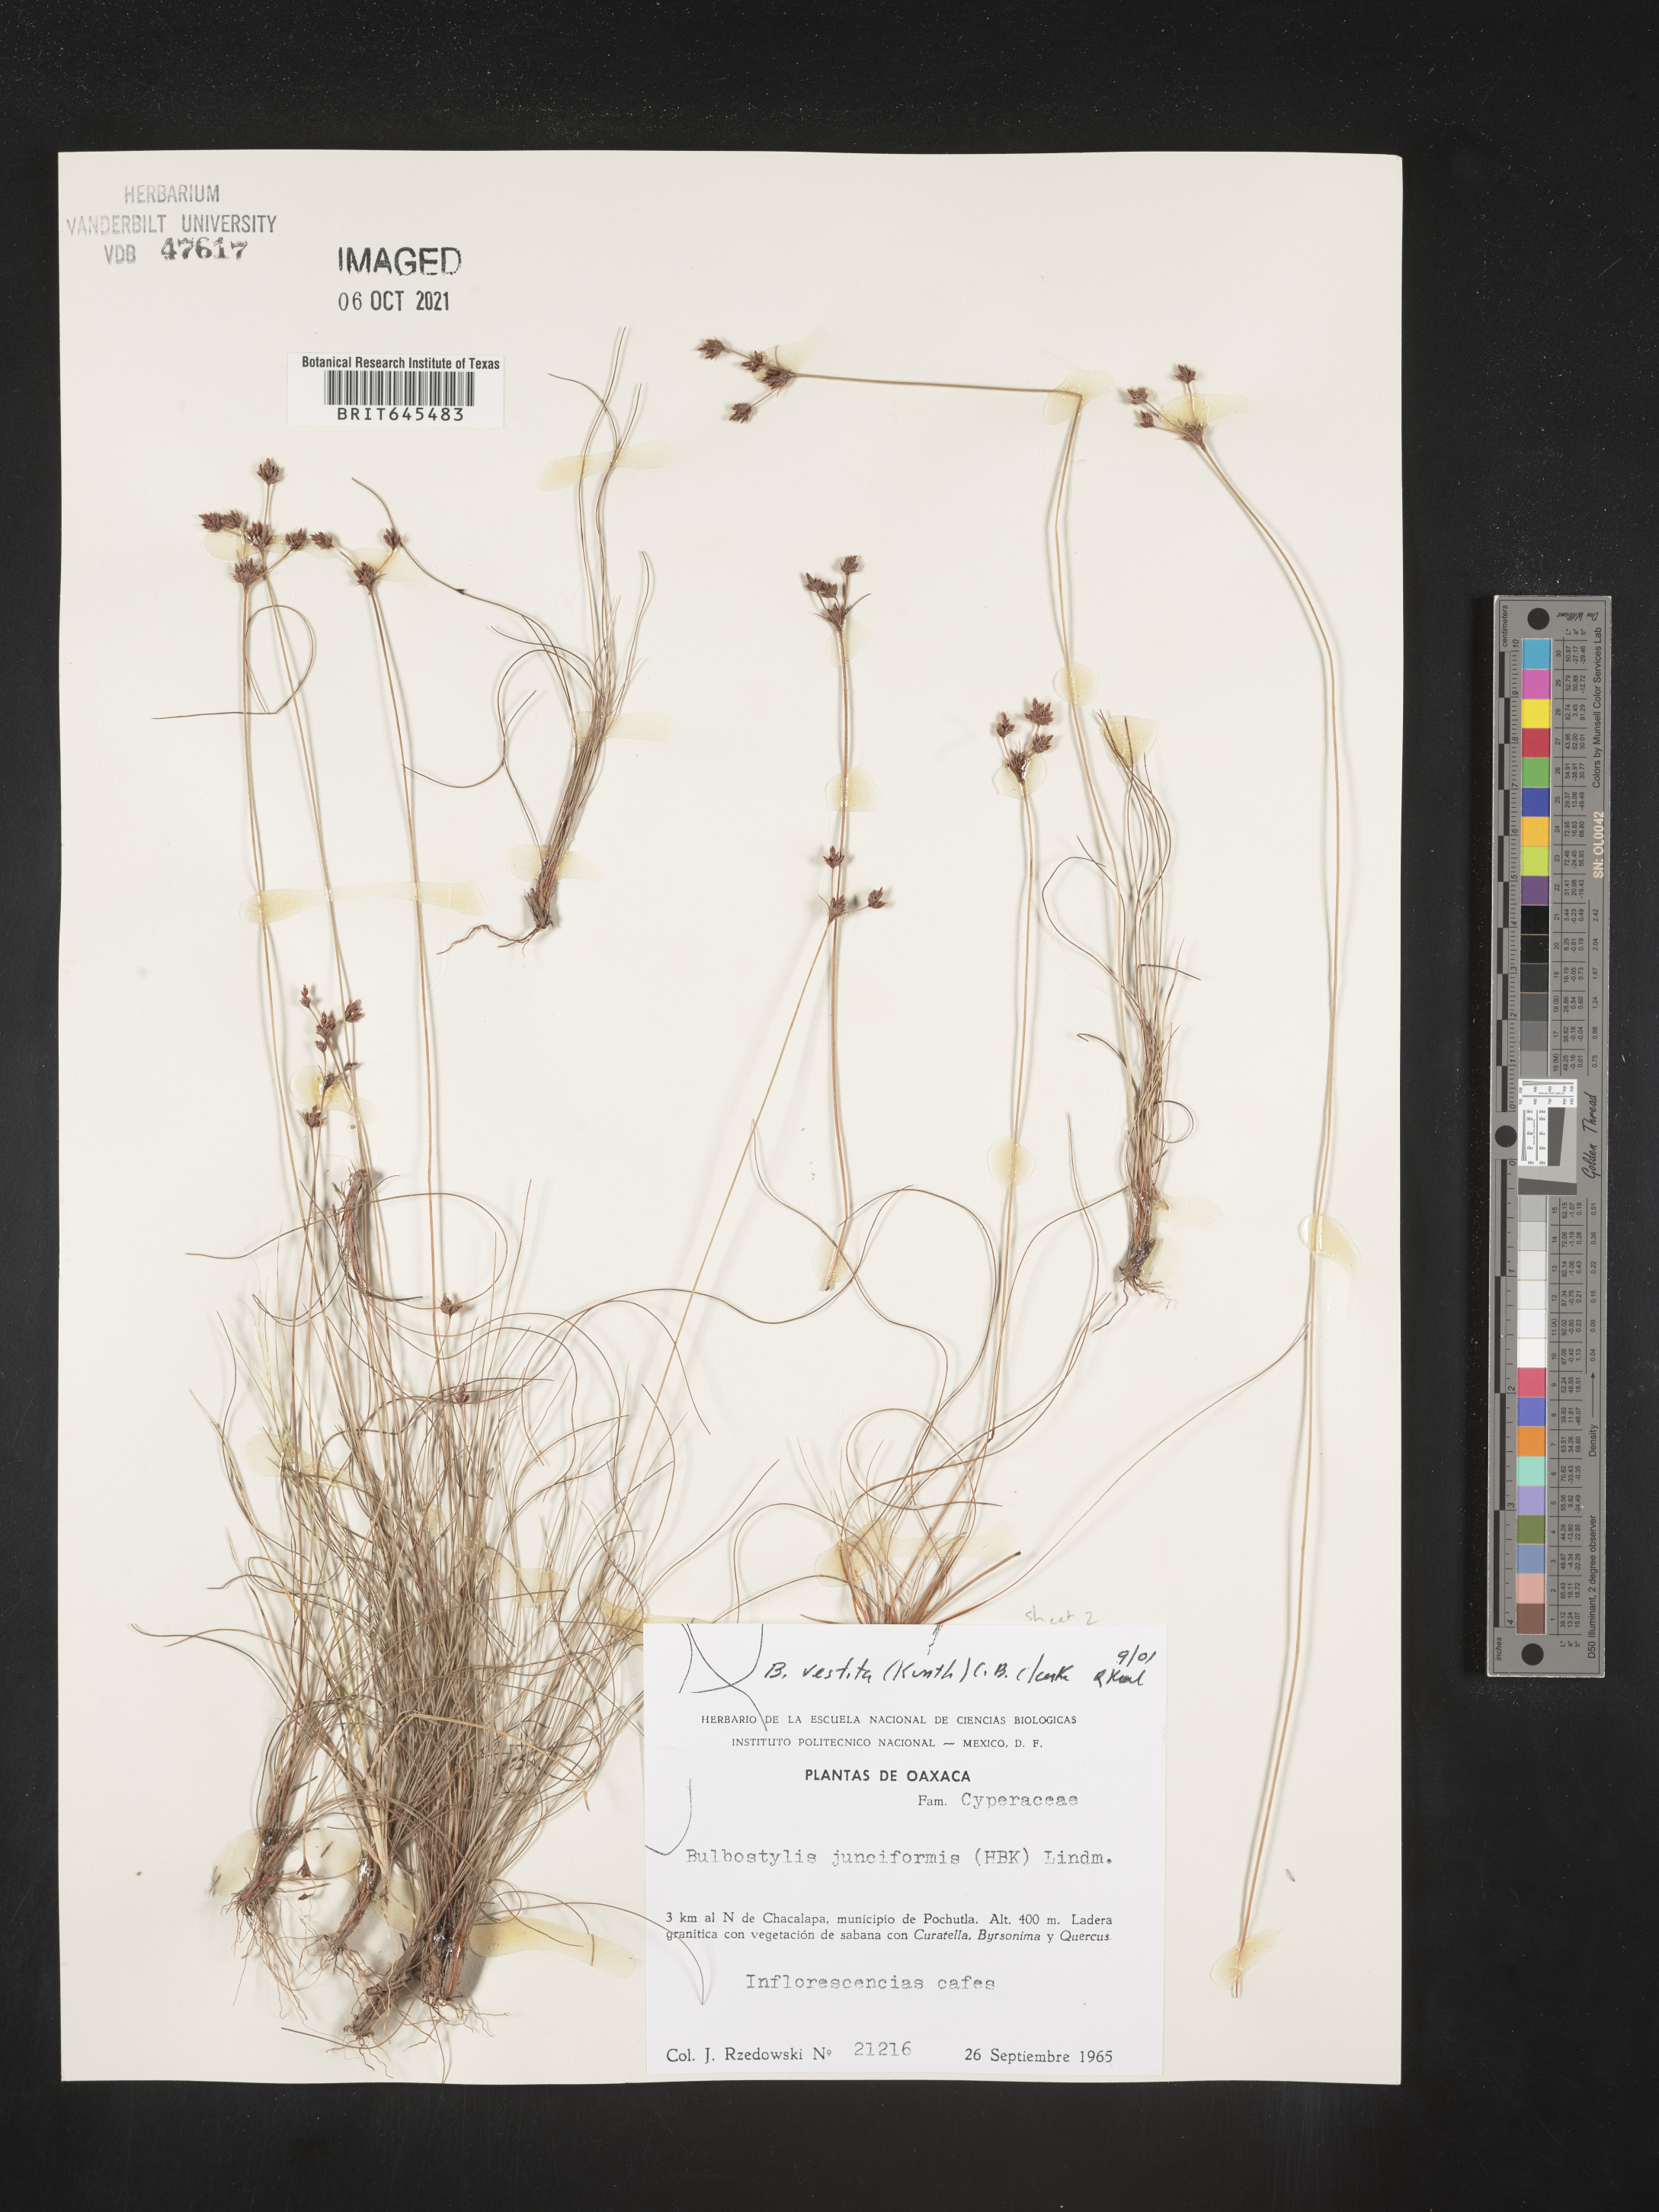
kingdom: Plantae
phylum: Tracheophyta
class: Liliopsida
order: Poales
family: Cyperaceae
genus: Bulbostylis
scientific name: Bulbostylis vestita
